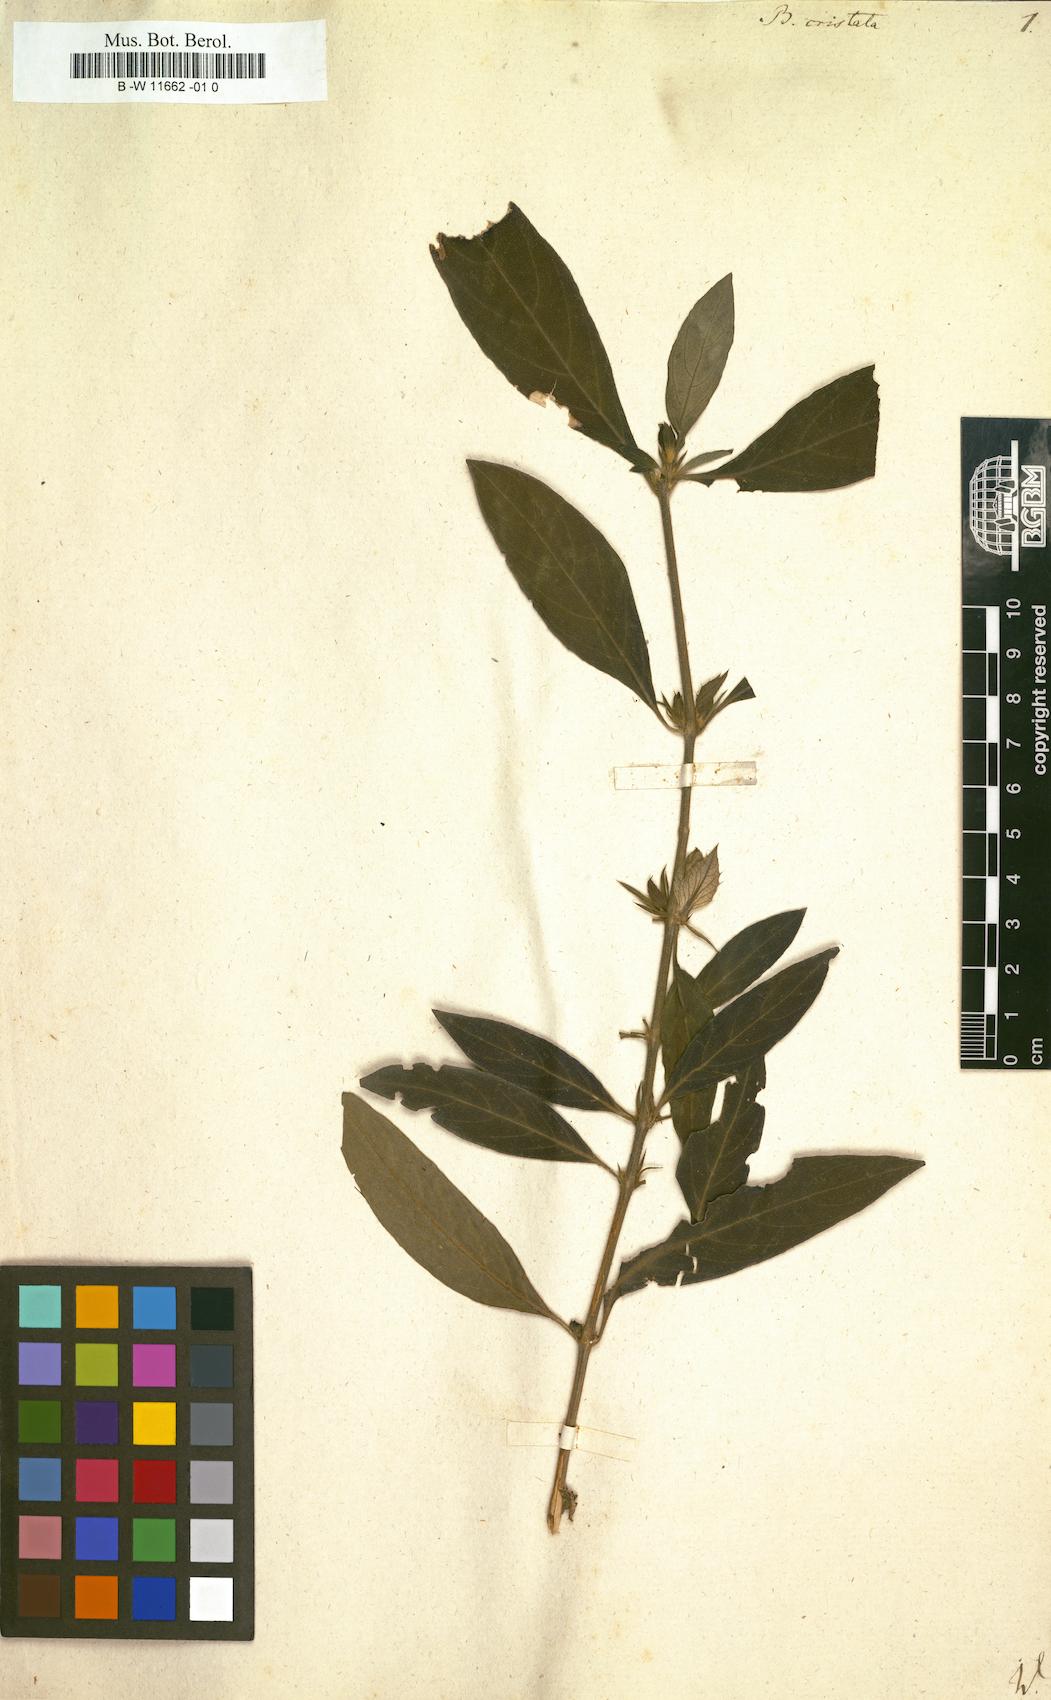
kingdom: Plantae
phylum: Tracheophyta
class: Magnoliopsida
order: Lamiales
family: Acanthaceae
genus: Barleria
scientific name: Barleria cristata
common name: Crested philippine violet
